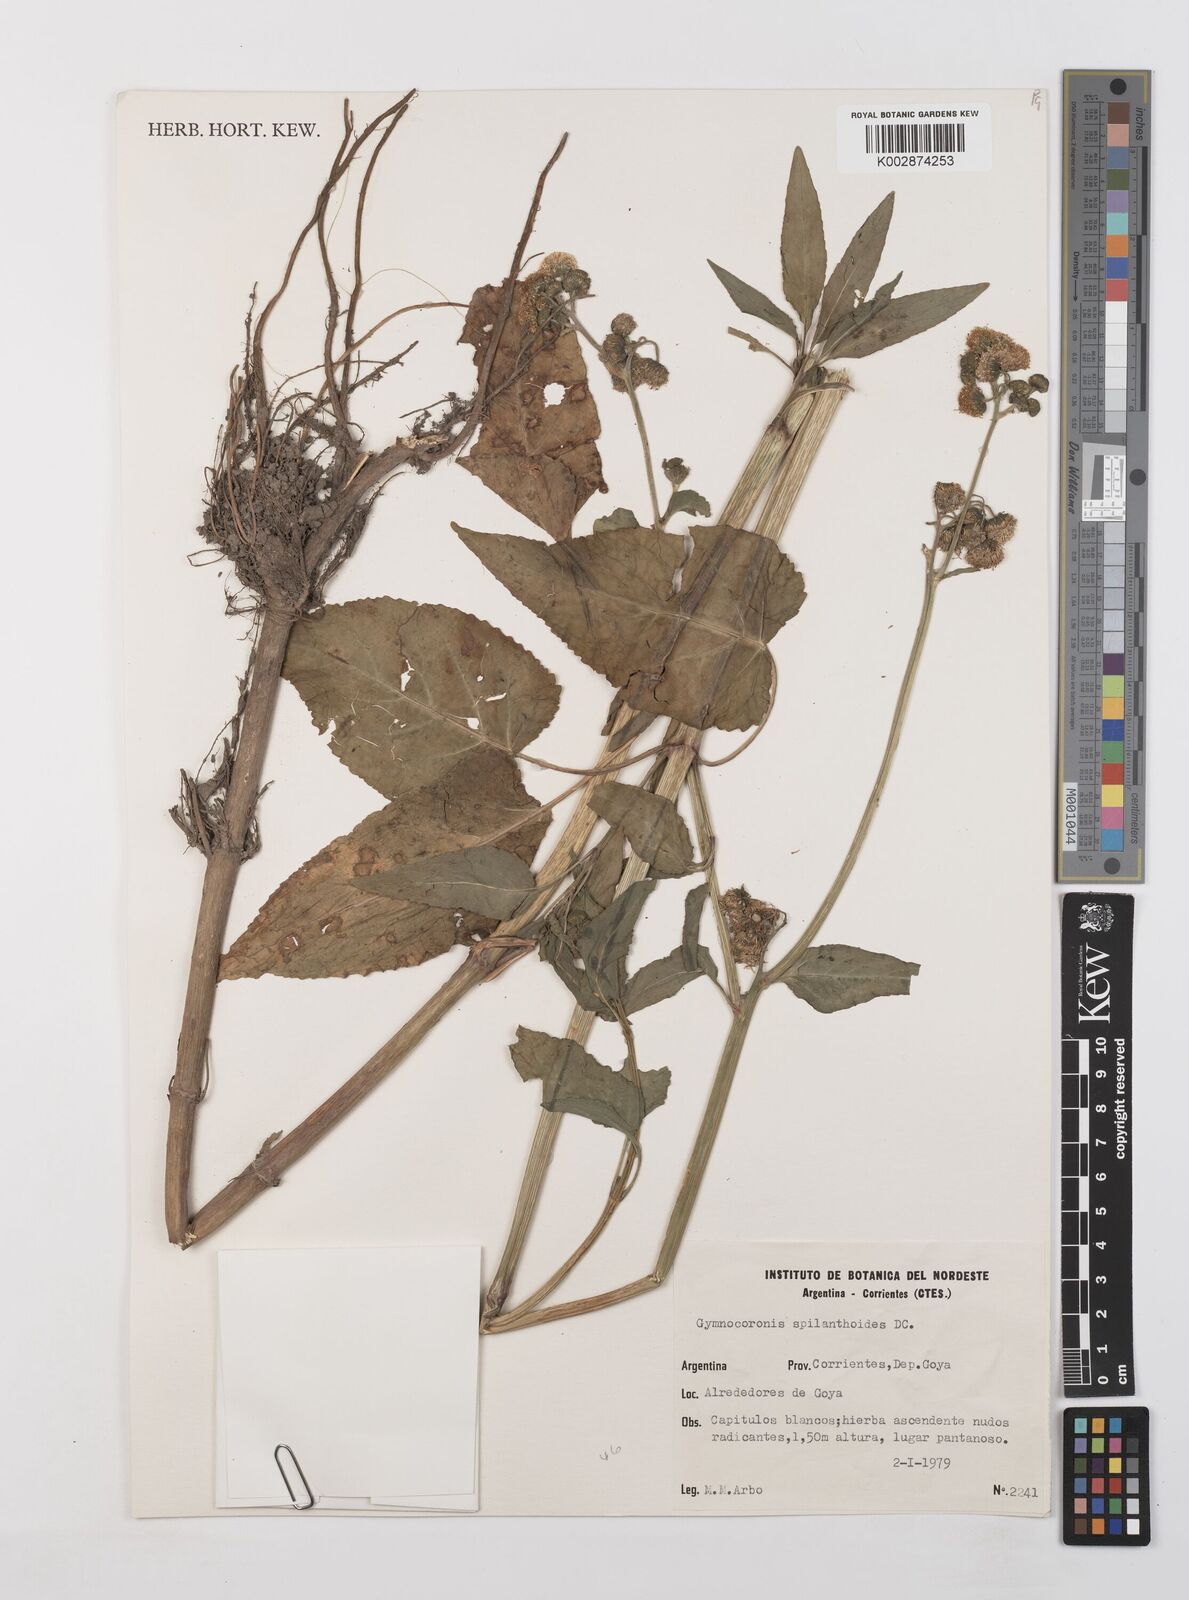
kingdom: Plantae
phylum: Tracheophyta
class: Magnoliopsida
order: Asterales
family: Asteraceae
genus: Gymnocoronis
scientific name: Gymnocoronis spilanthoides
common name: Senegal teaplant
